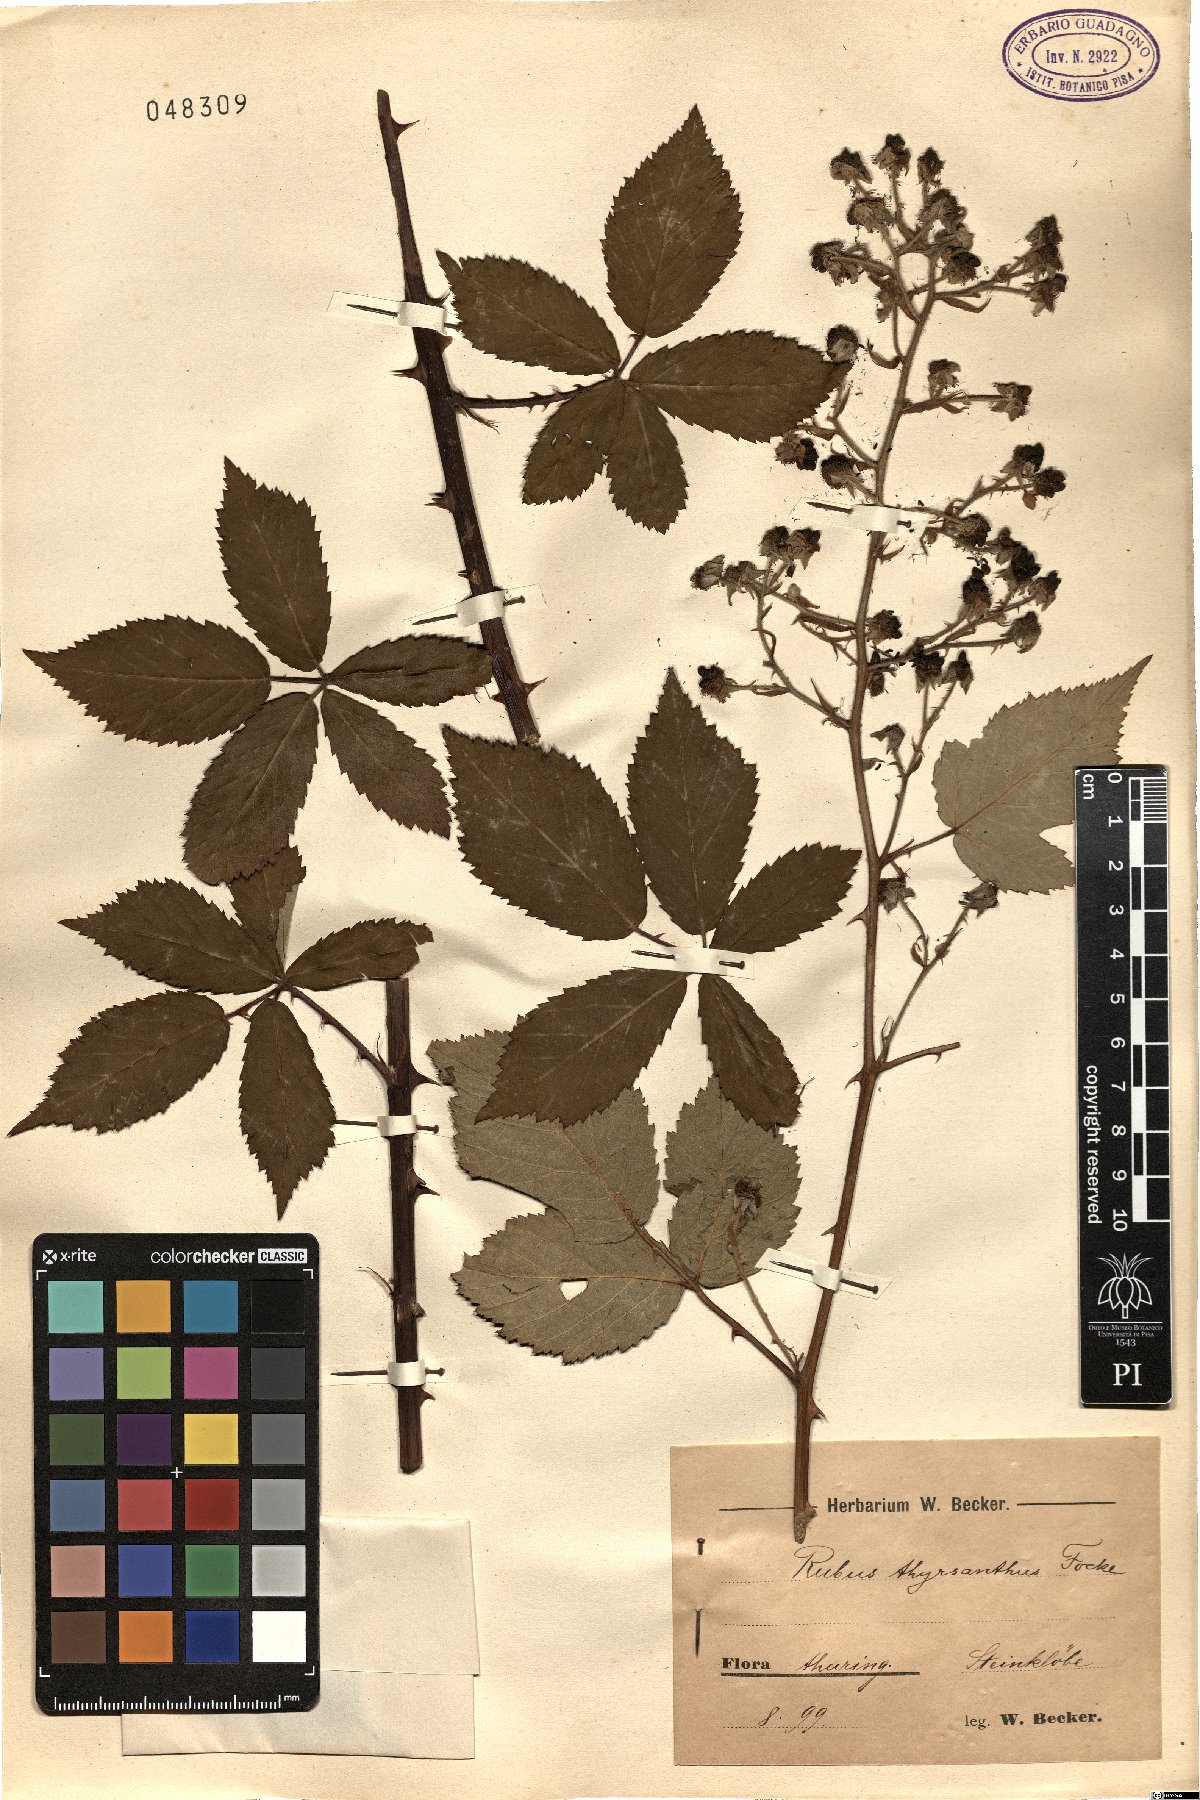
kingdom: Plantae
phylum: Tracheophyta
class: Magnoliopsida
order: Rosales
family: Rosaceae
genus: Rubus
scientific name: Rubus grabowskii
